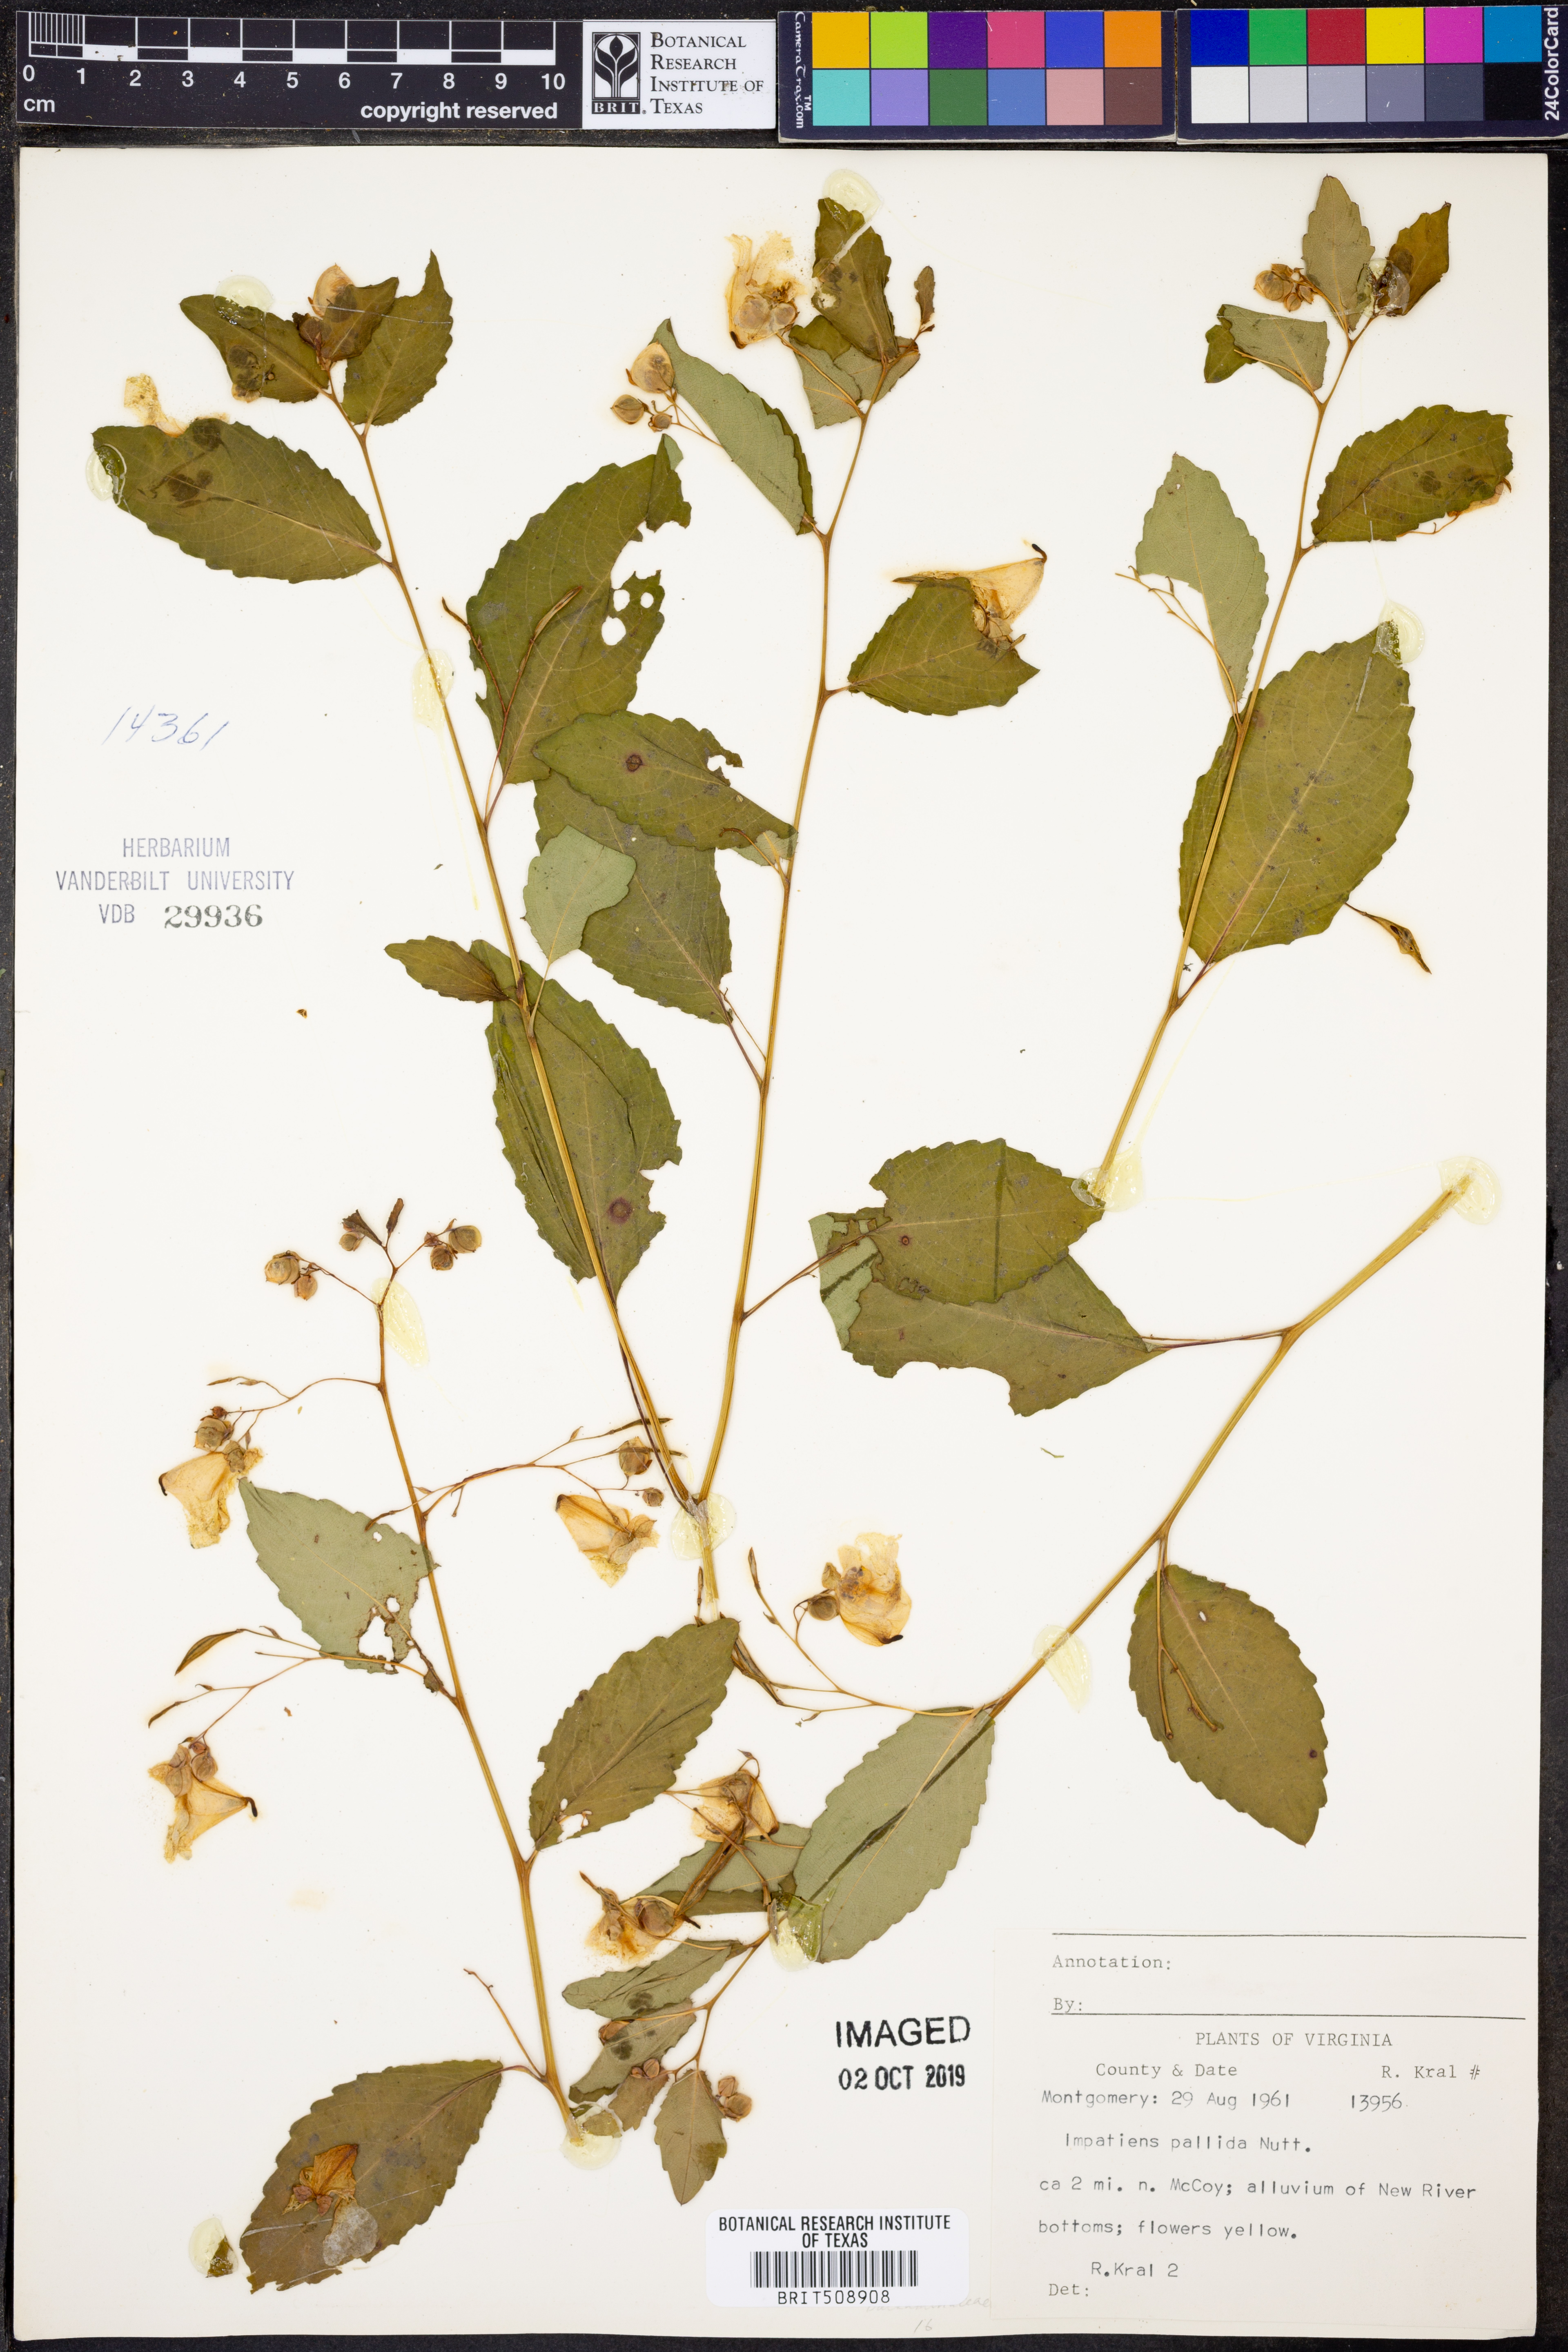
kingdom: Plantae
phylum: Tracheophyta
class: Magnoliopsida
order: Ericales
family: Balsaminaceae
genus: Impatiens
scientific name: Impatiens pallida
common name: Pale snapweed
